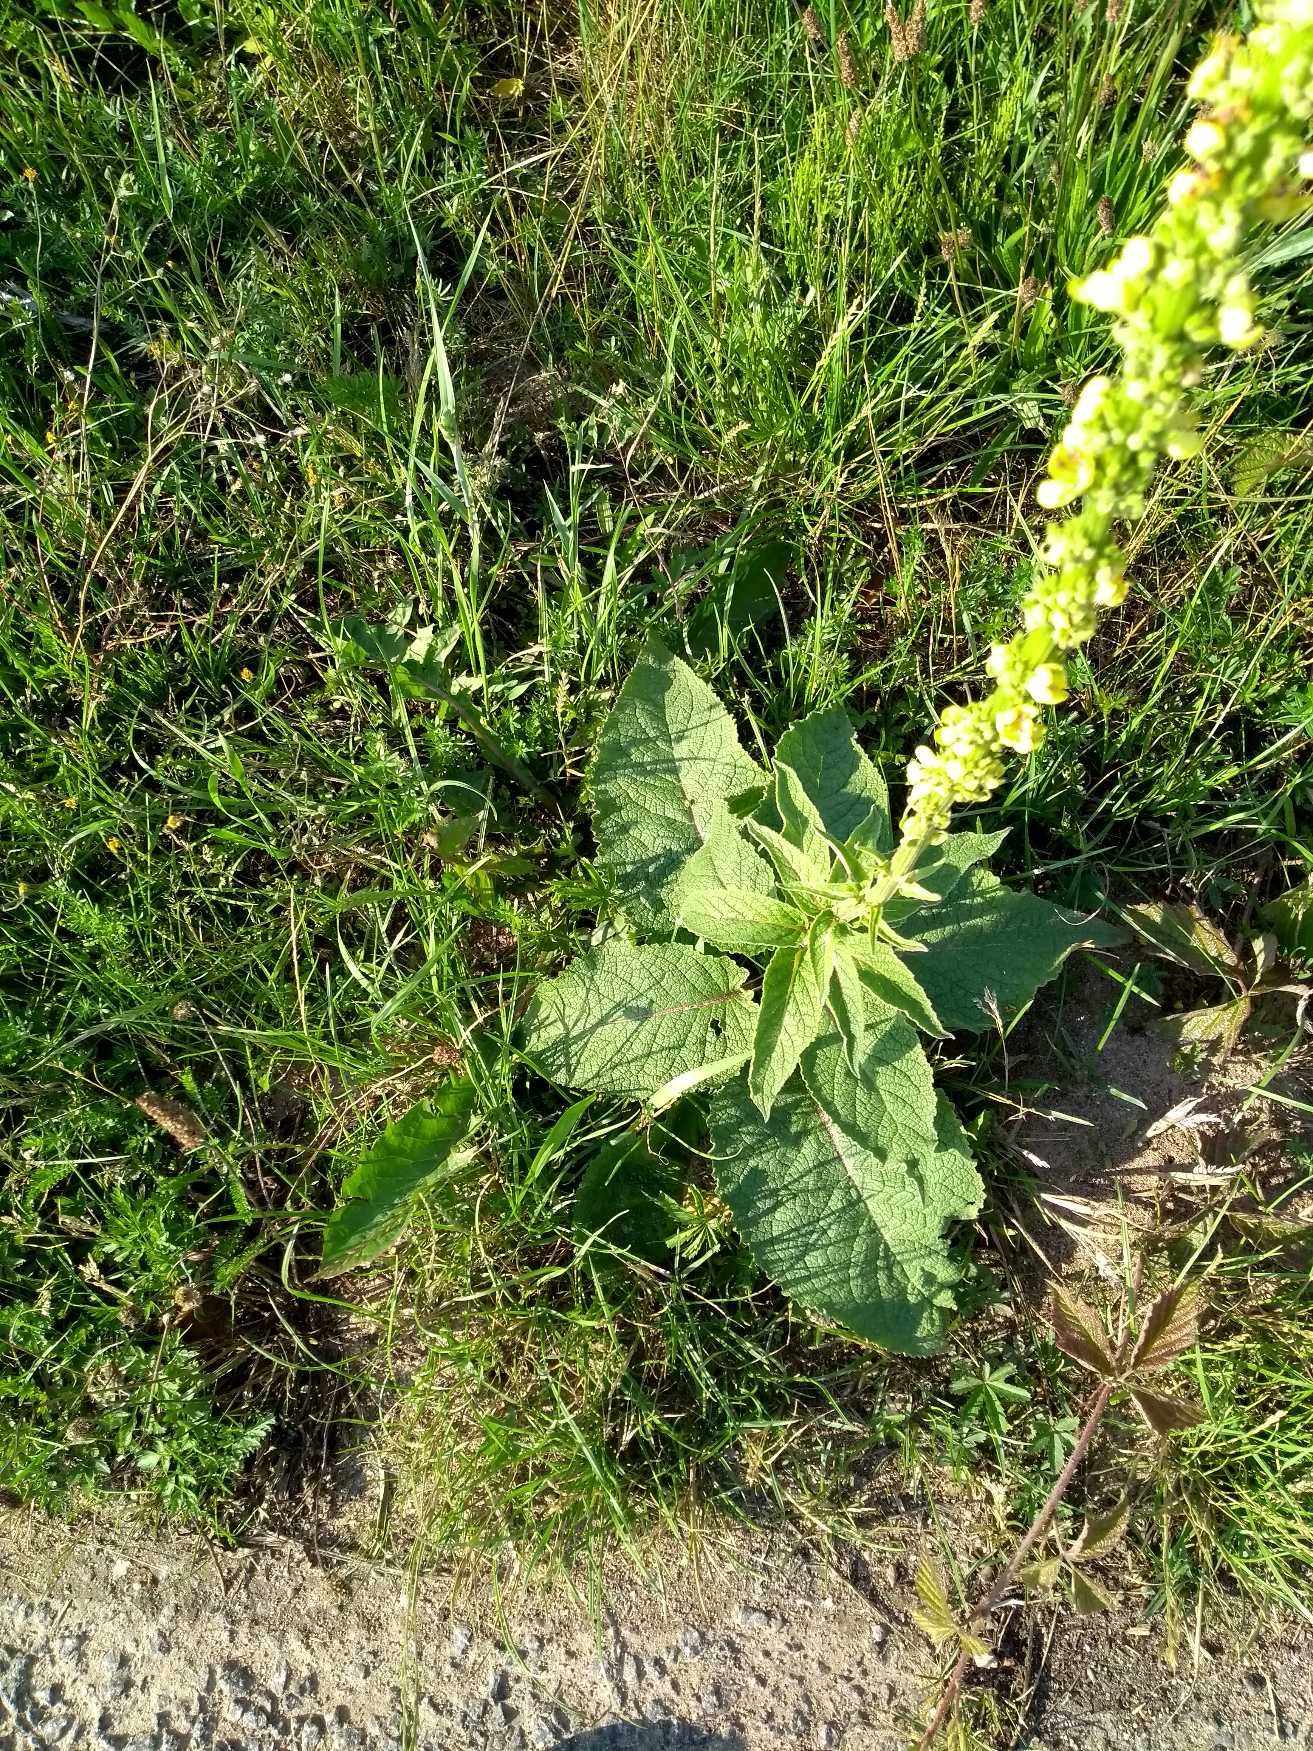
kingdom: Plantae
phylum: Tracheophyta
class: Magnoliopsida
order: Lamiales
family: Scrophulariaceae
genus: Verbascum
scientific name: Verbascum nigrum
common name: Mørk kongelys
